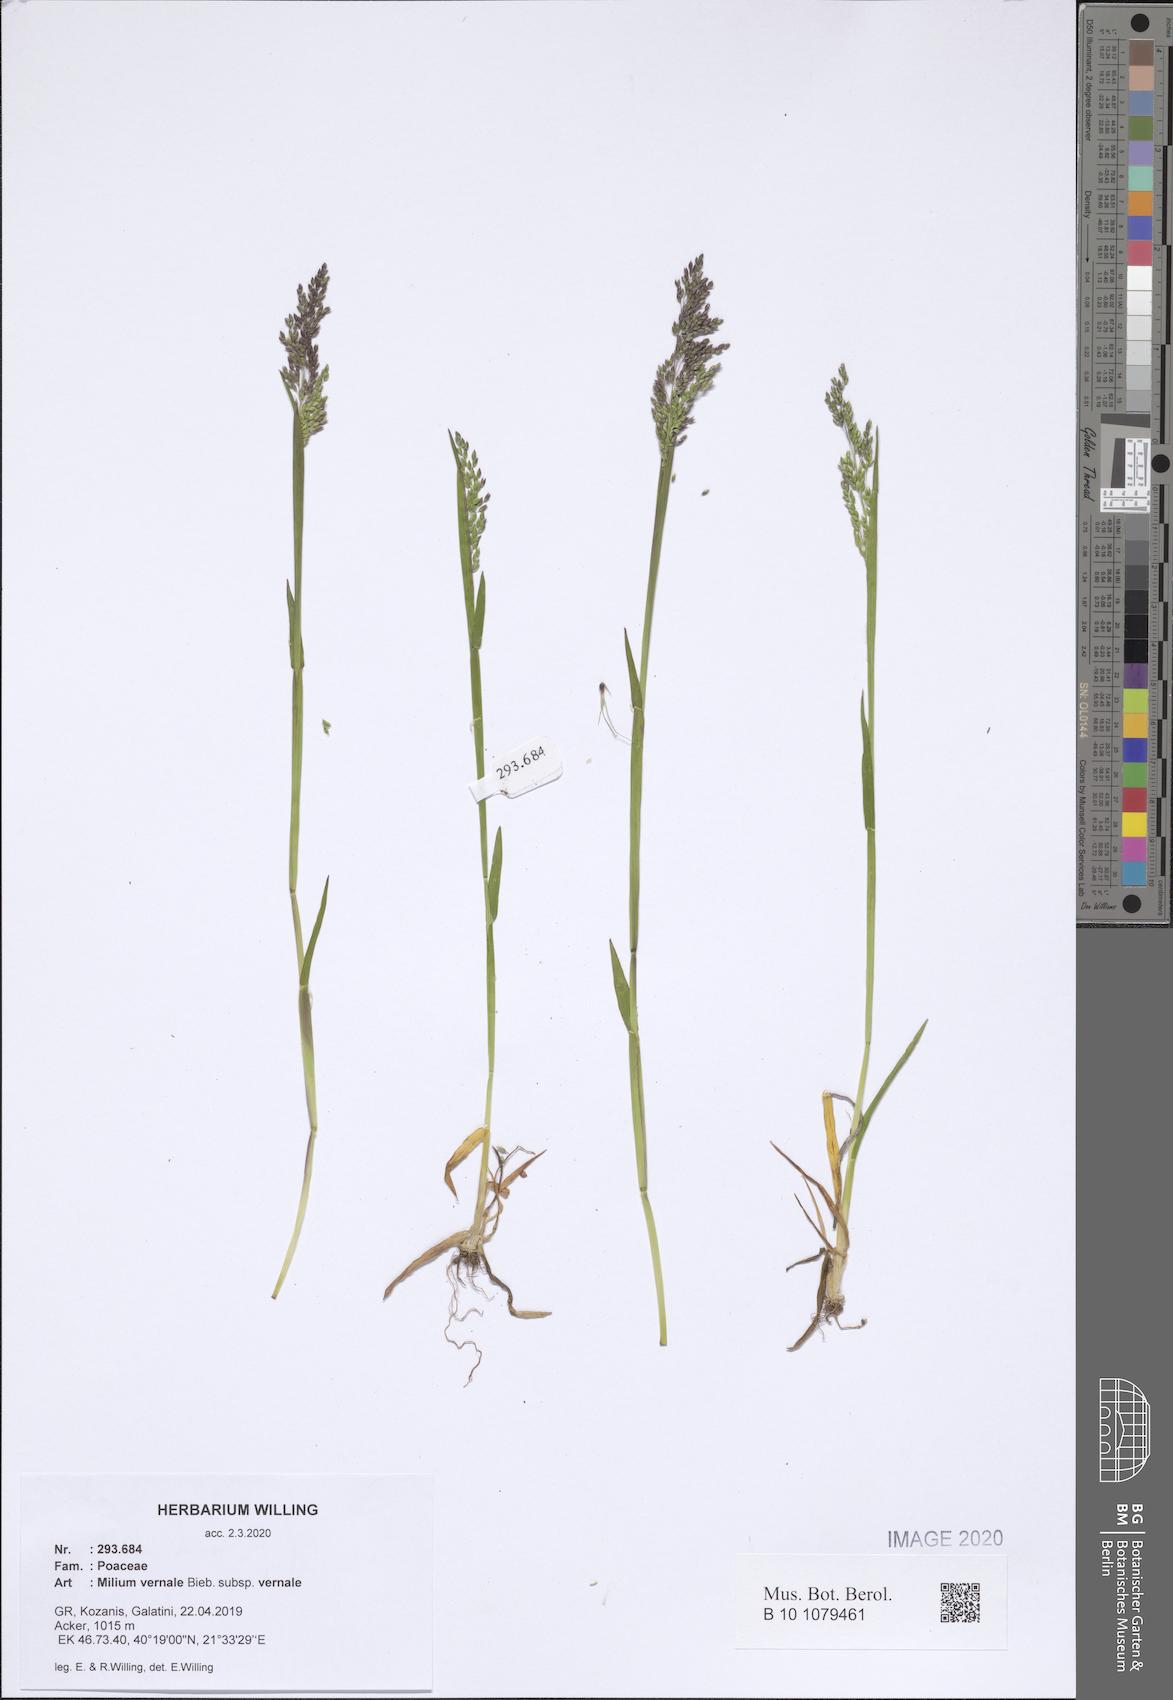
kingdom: Plantae
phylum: Tracheophyta
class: Liliopsida
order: Poales
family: Poaceae
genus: Milium
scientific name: Milium vernale
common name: Early millet
